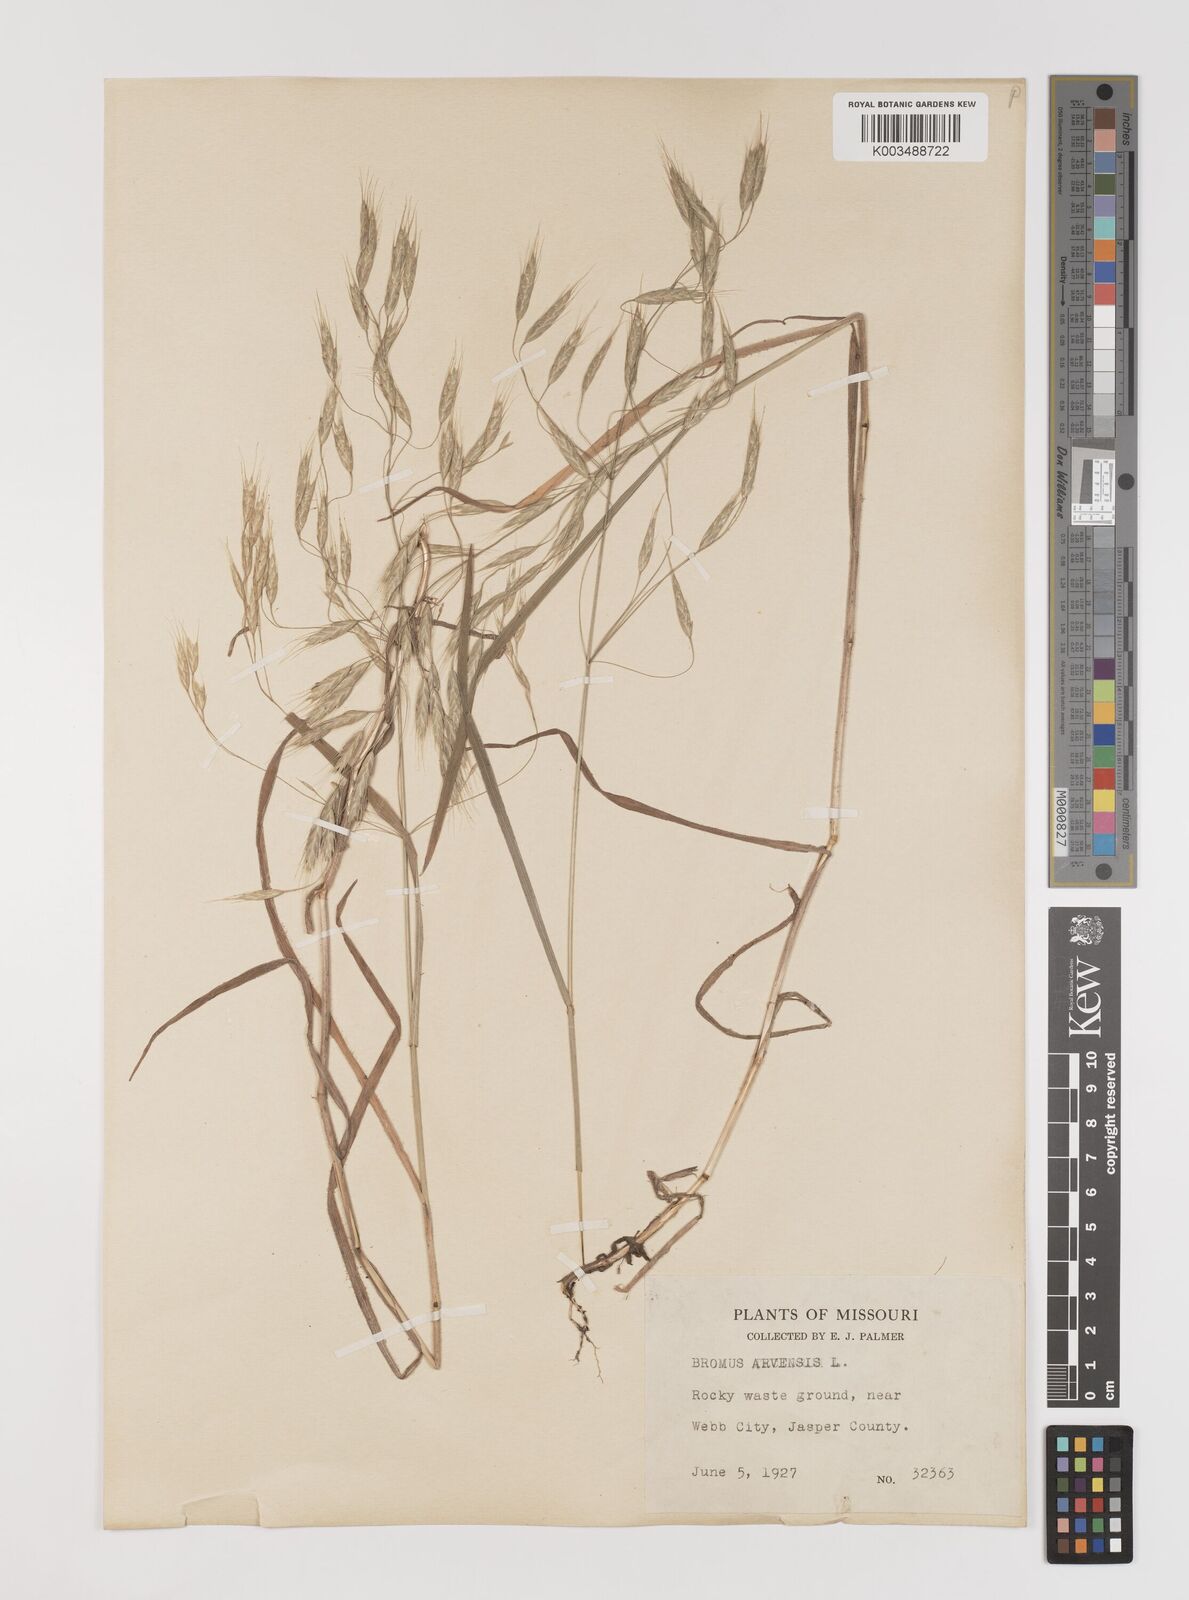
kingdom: Plantae
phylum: Tracheophyta
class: Liliopsida
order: Poales
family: Poaceae
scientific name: Poaceae
